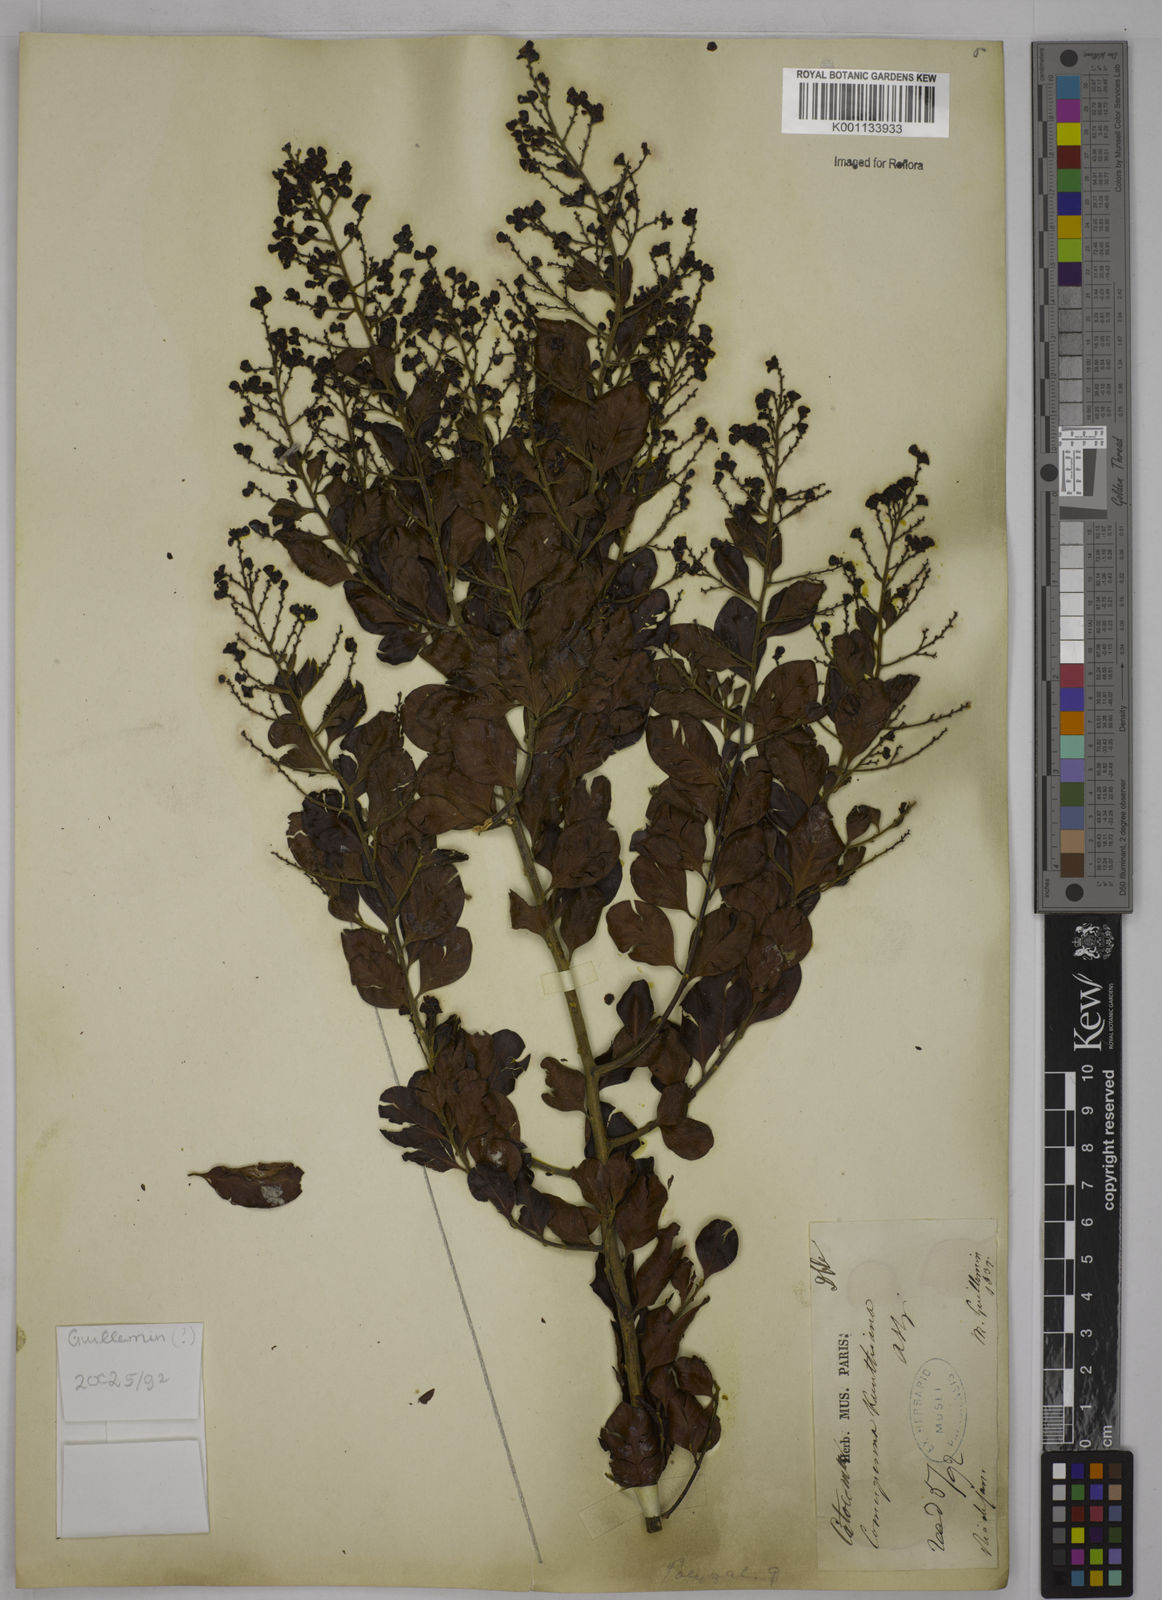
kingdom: Plantae
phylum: Tracheophyta
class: Magnoliopsida
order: Fabales
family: Polygalaceae
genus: Bredemeyera
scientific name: Bredemeyera hebeclada
